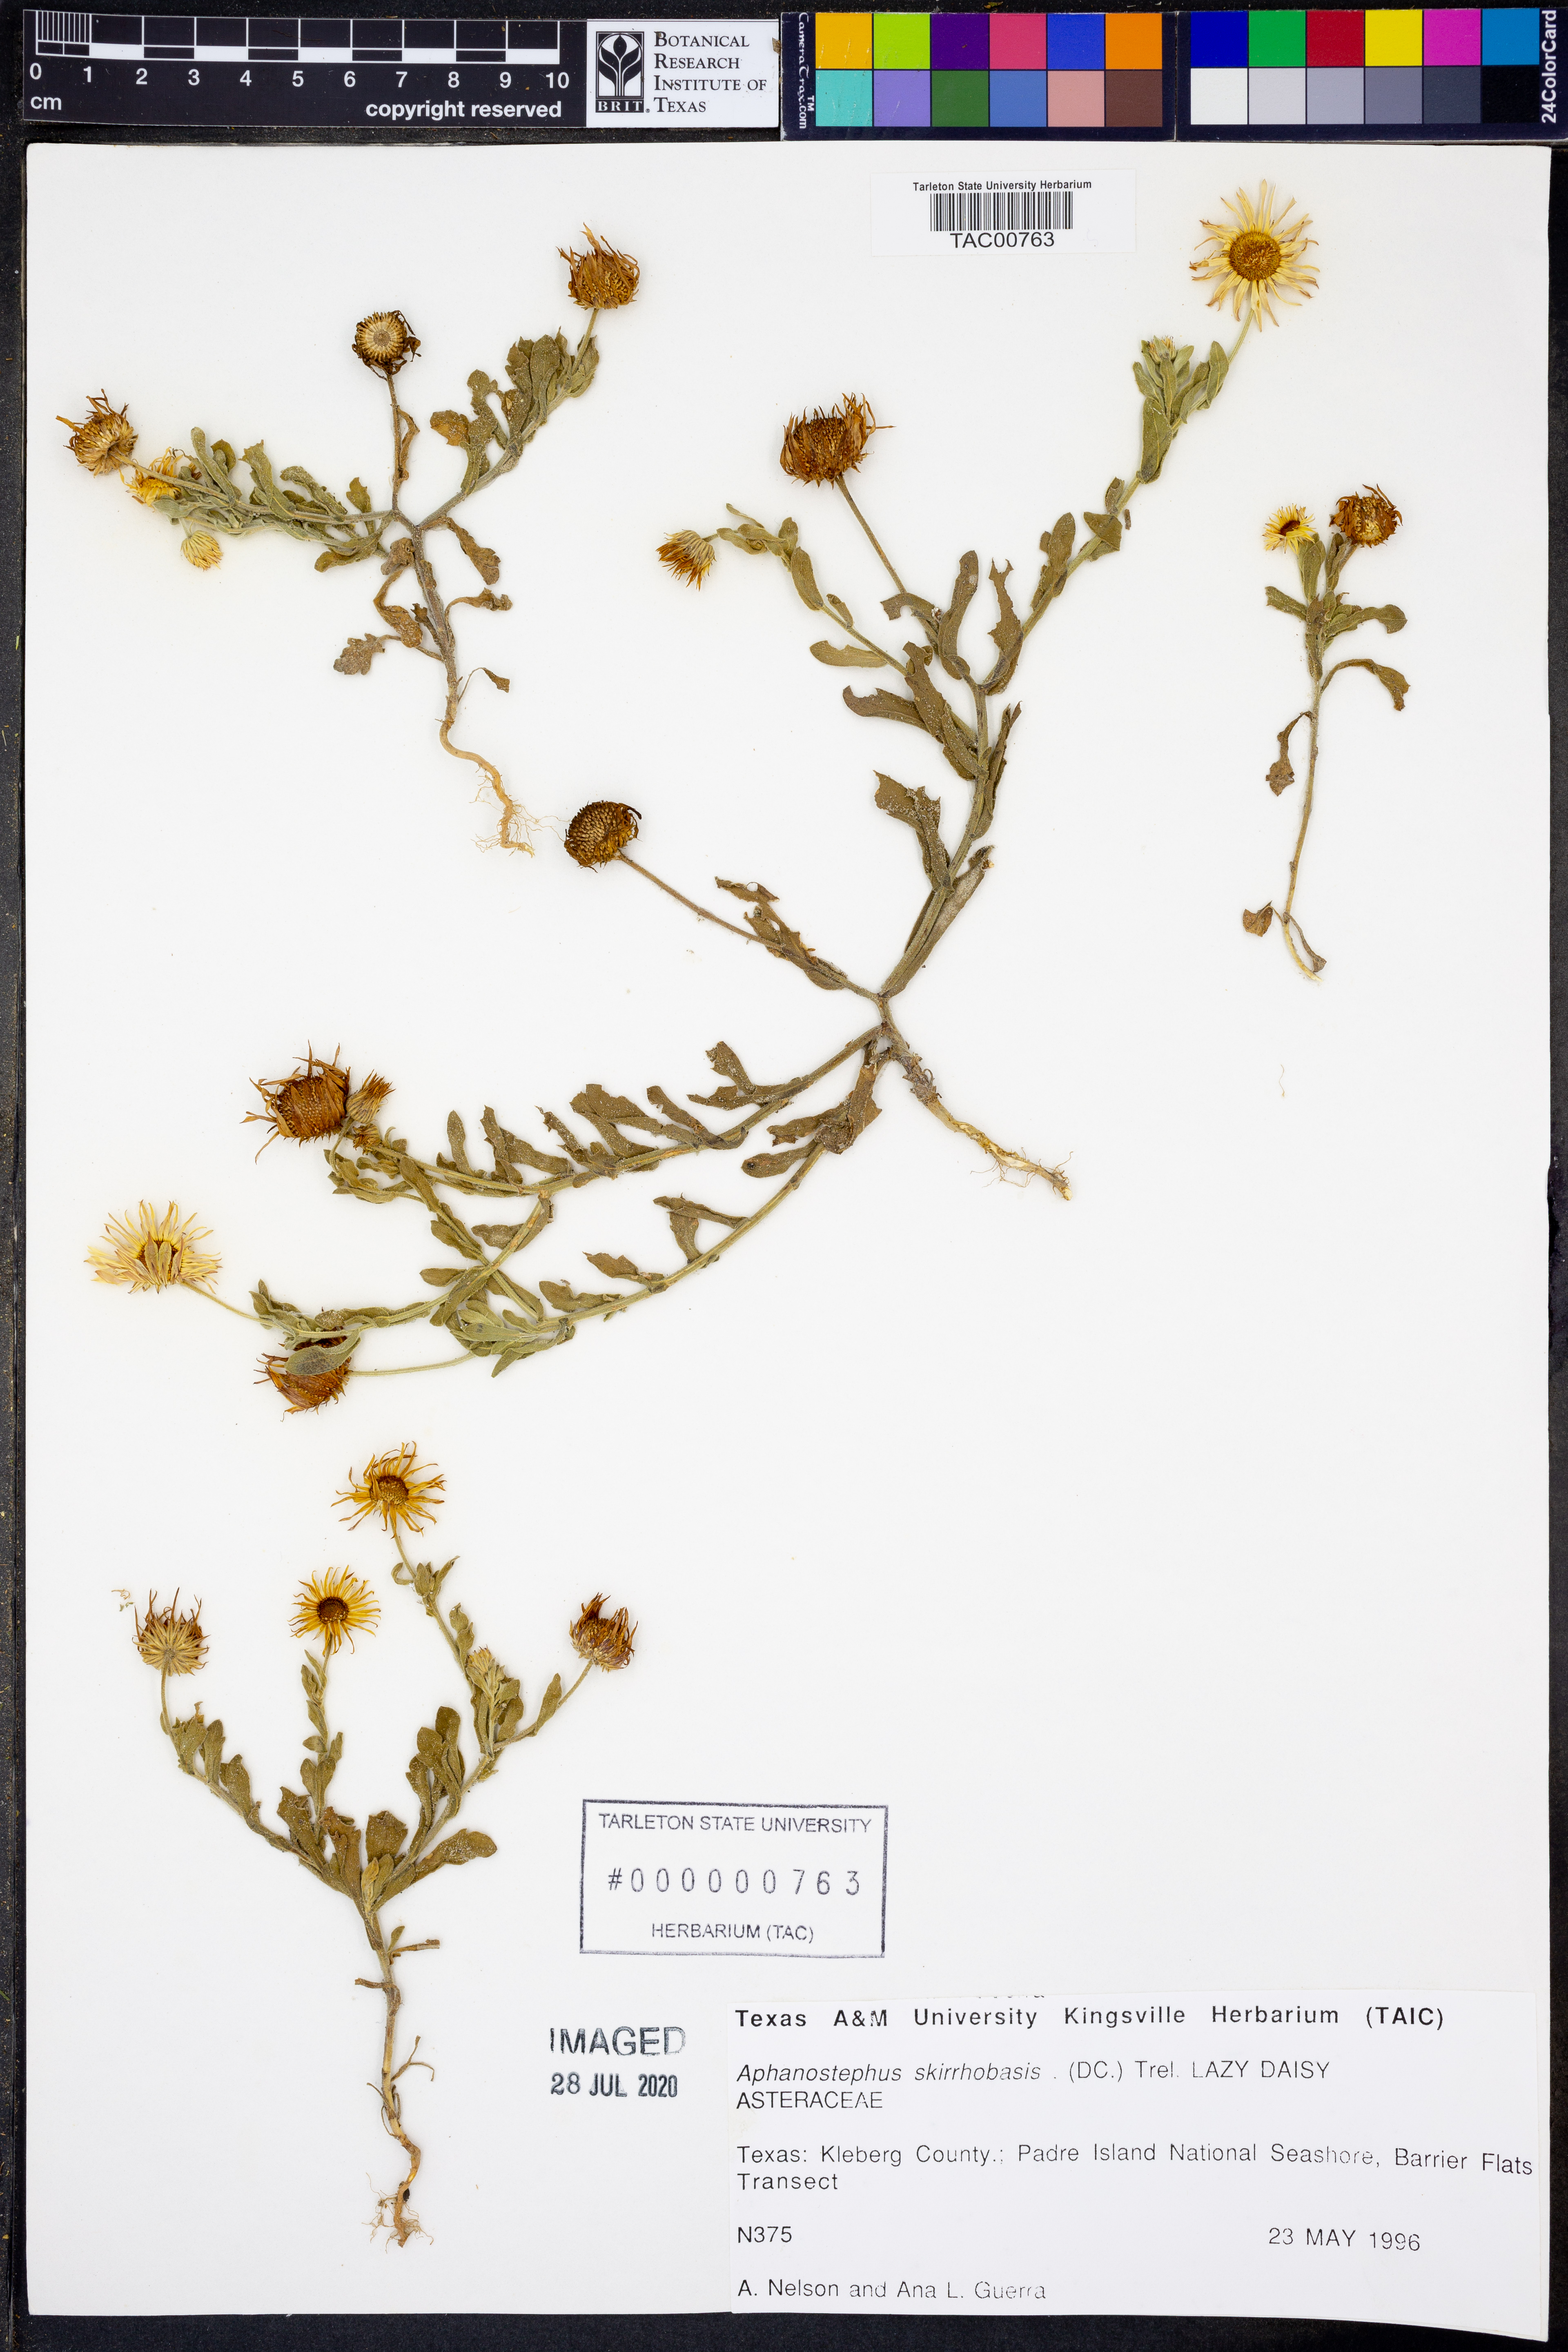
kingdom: Plantae
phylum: Tracheophyta
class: Magnoliopsida
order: Asterales
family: Asteraceae
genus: Aphanostephus
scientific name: Aphanostephus skirrhobasis
